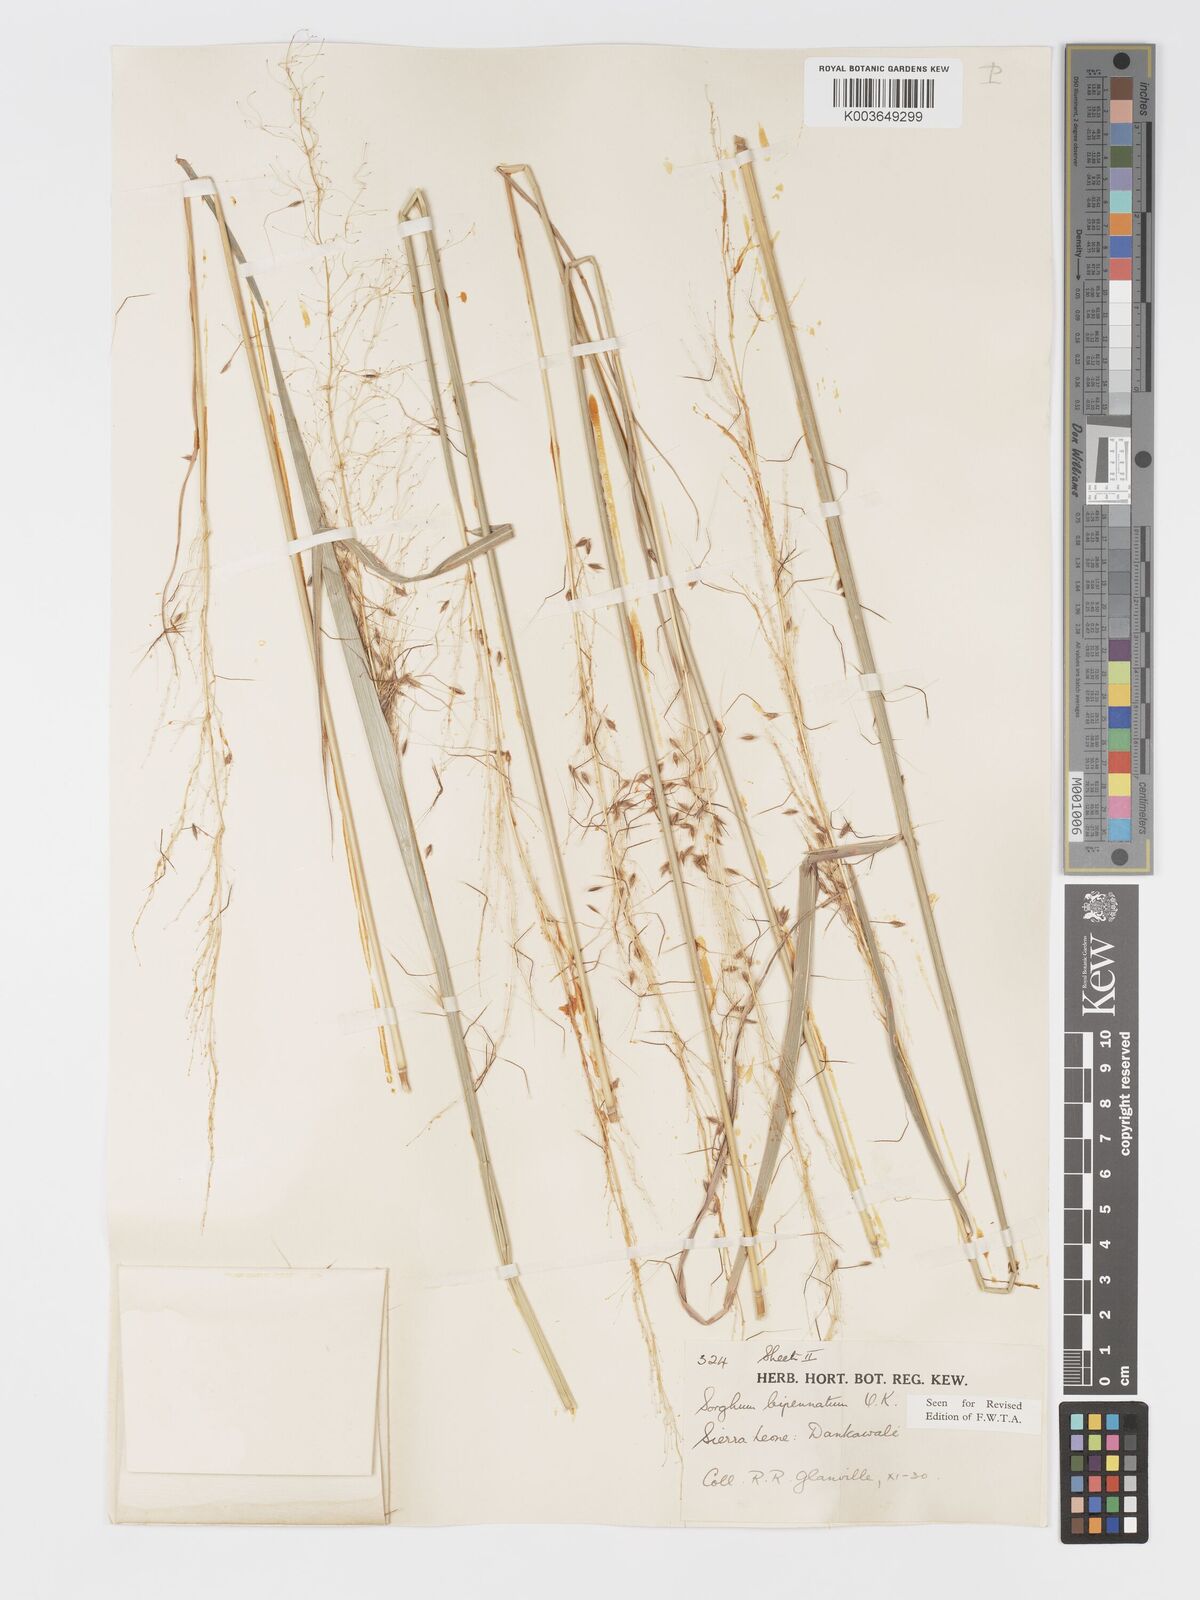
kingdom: Plantae
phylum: Tracheophyta
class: Liliopsida
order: Poales
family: Poaceae
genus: Sorghastrum
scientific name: Sorghastrum incompletum
